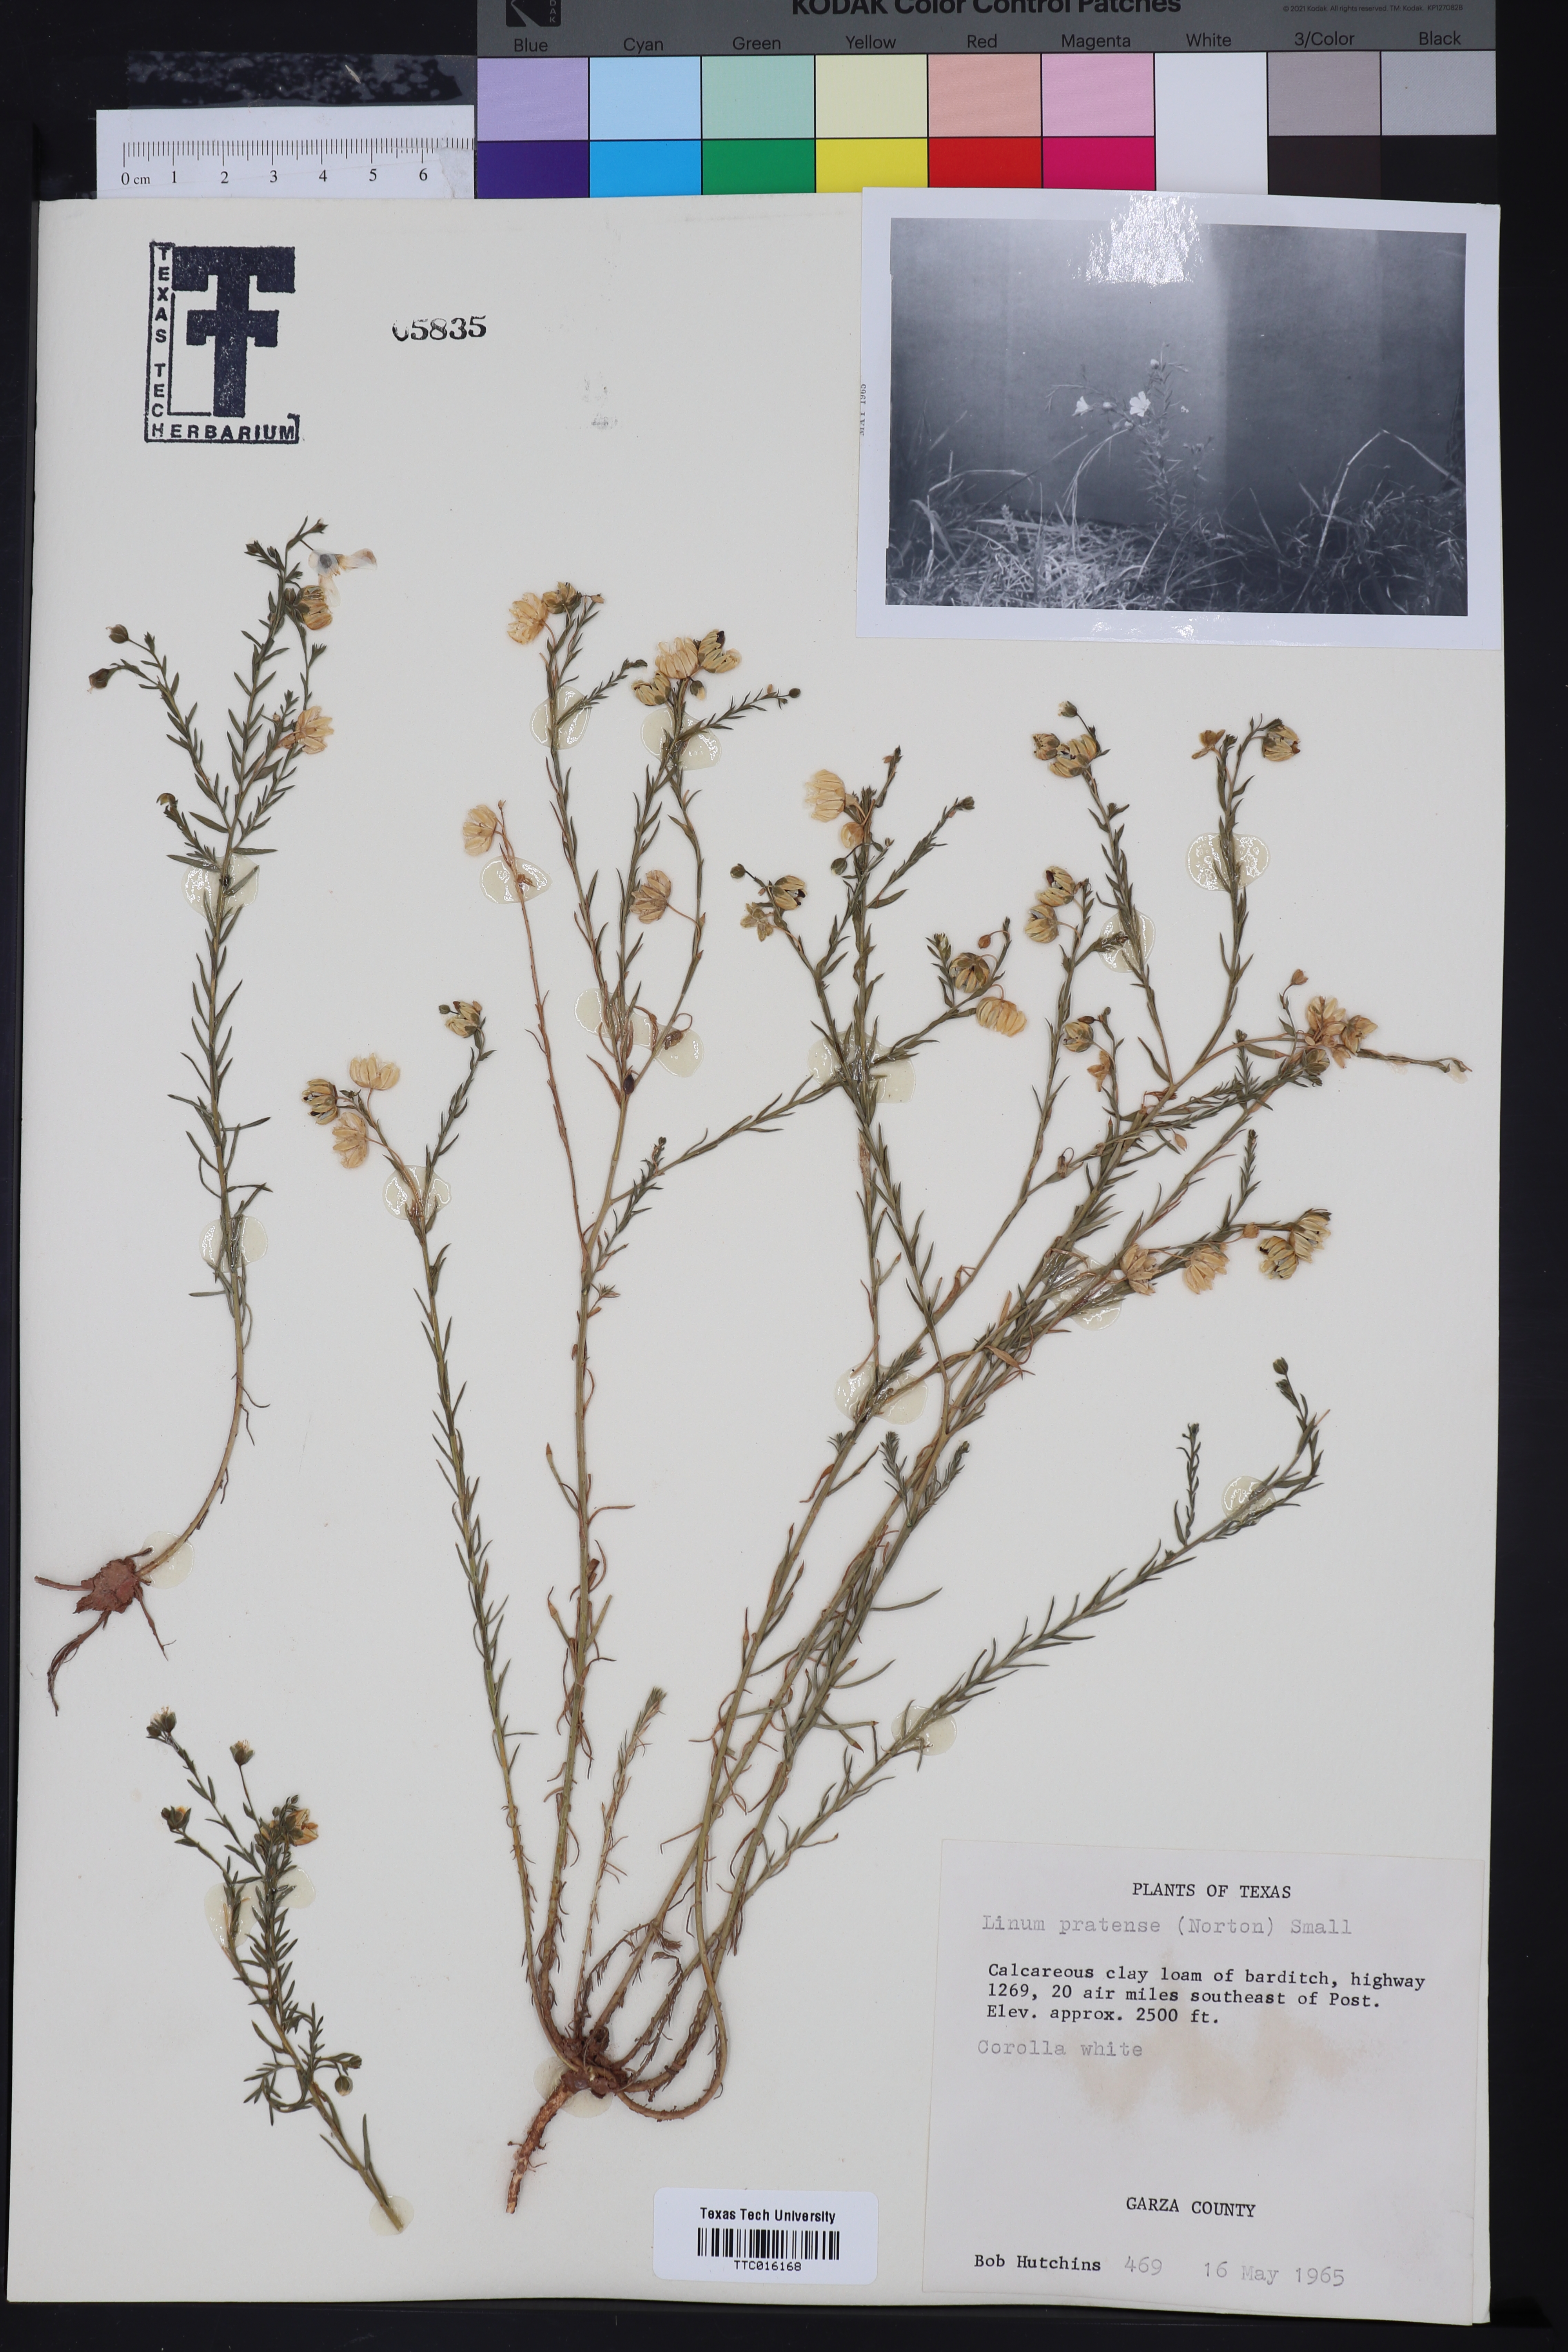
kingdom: Plantae
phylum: Tracheophyta
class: Magnoliopsida
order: Malpighiales
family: Linaceae
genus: Linum
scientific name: Linum pratense
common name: Norton's flax
